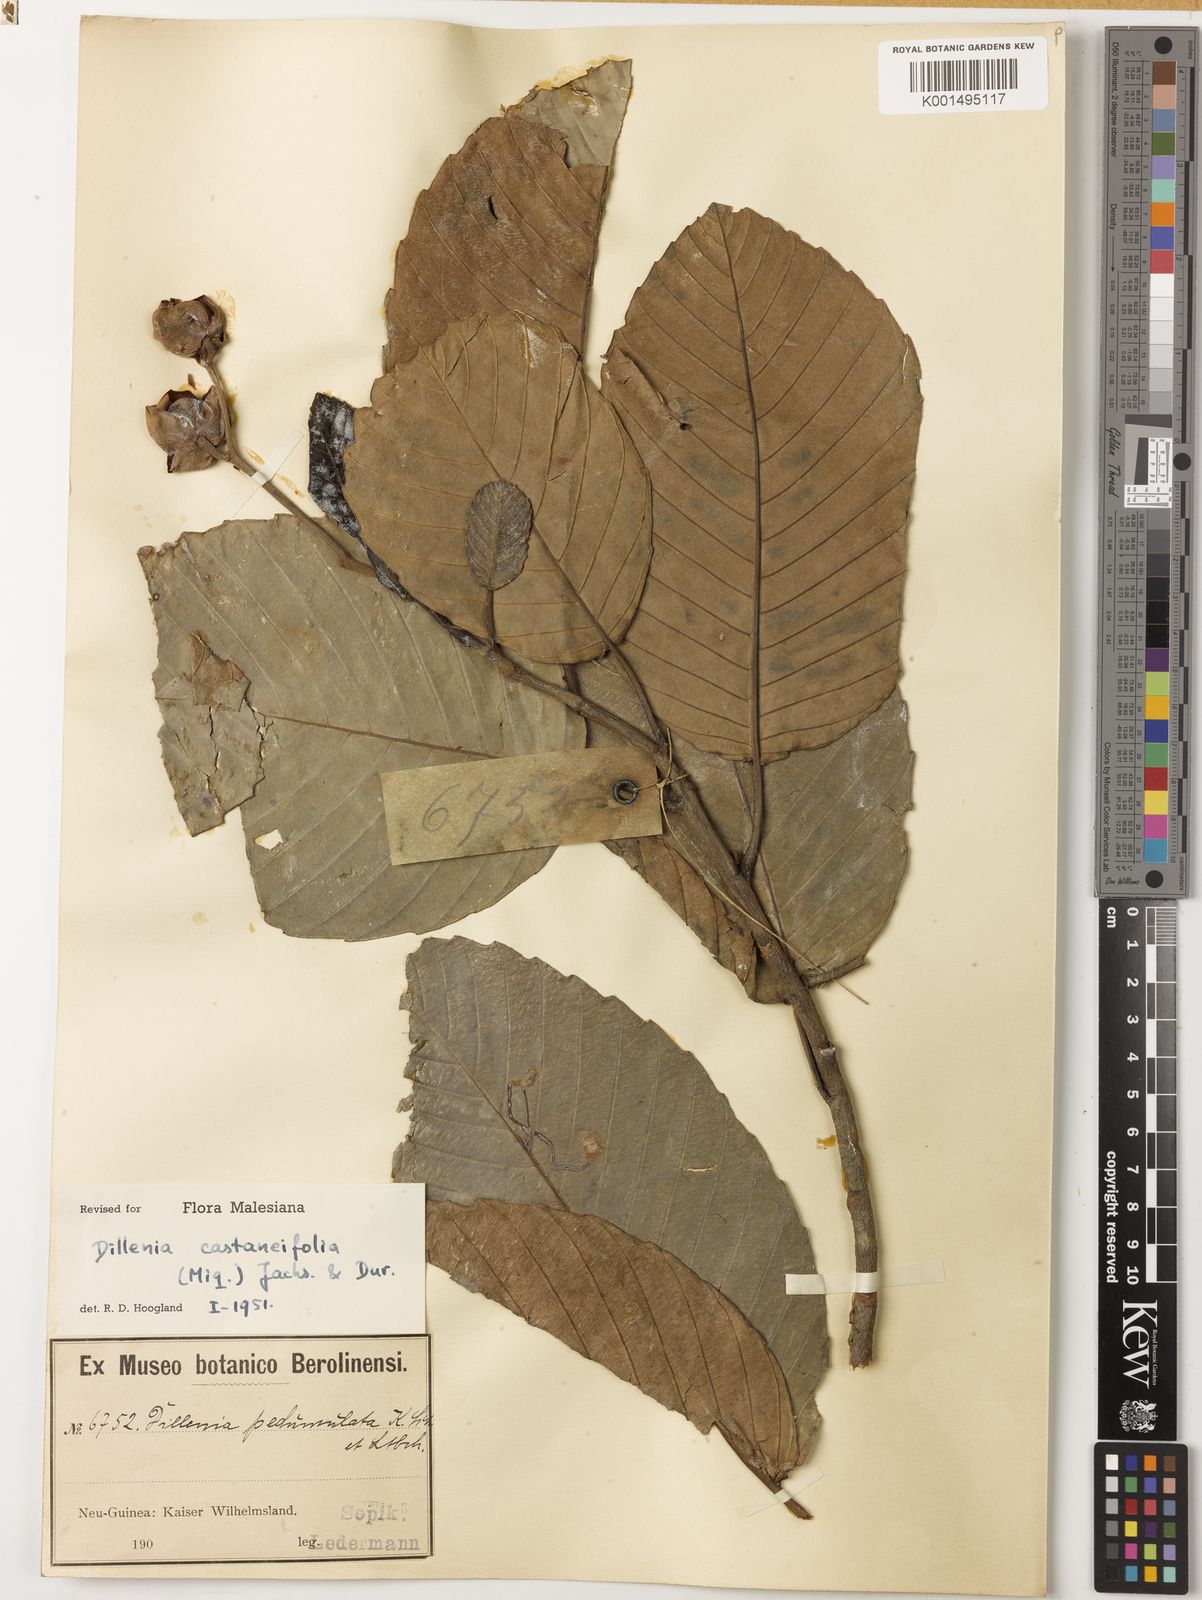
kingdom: Plantae
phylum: Tracheophyta
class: Magnoliopsida
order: Dilleniales
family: Dilleniaceae
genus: Dillenia
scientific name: Dillenia castaneifolia
